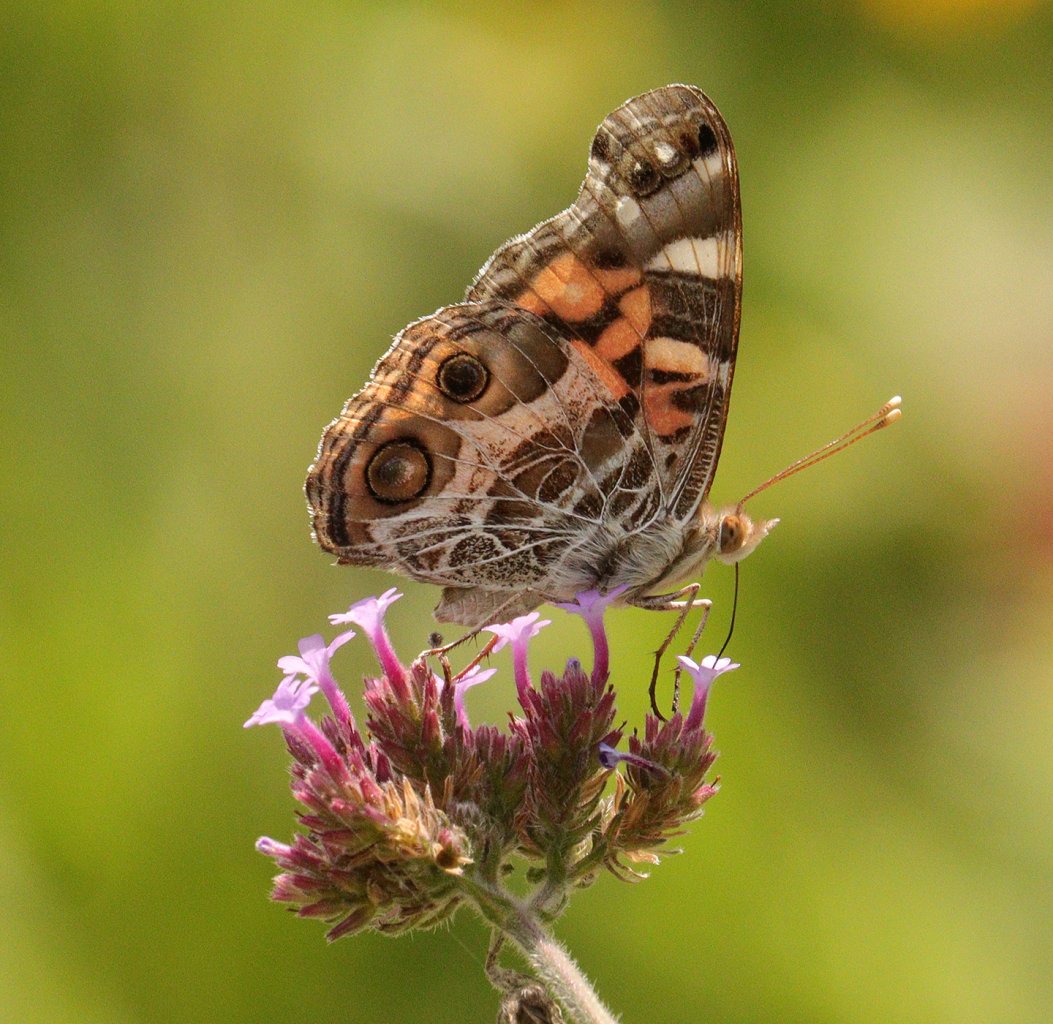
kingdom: Animalia
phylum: Arthropoda
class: Insecta
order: Lepidoptera
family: Nymphalidae
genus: Vanessa
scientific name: Vanessa virginiensis
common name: American Lady
